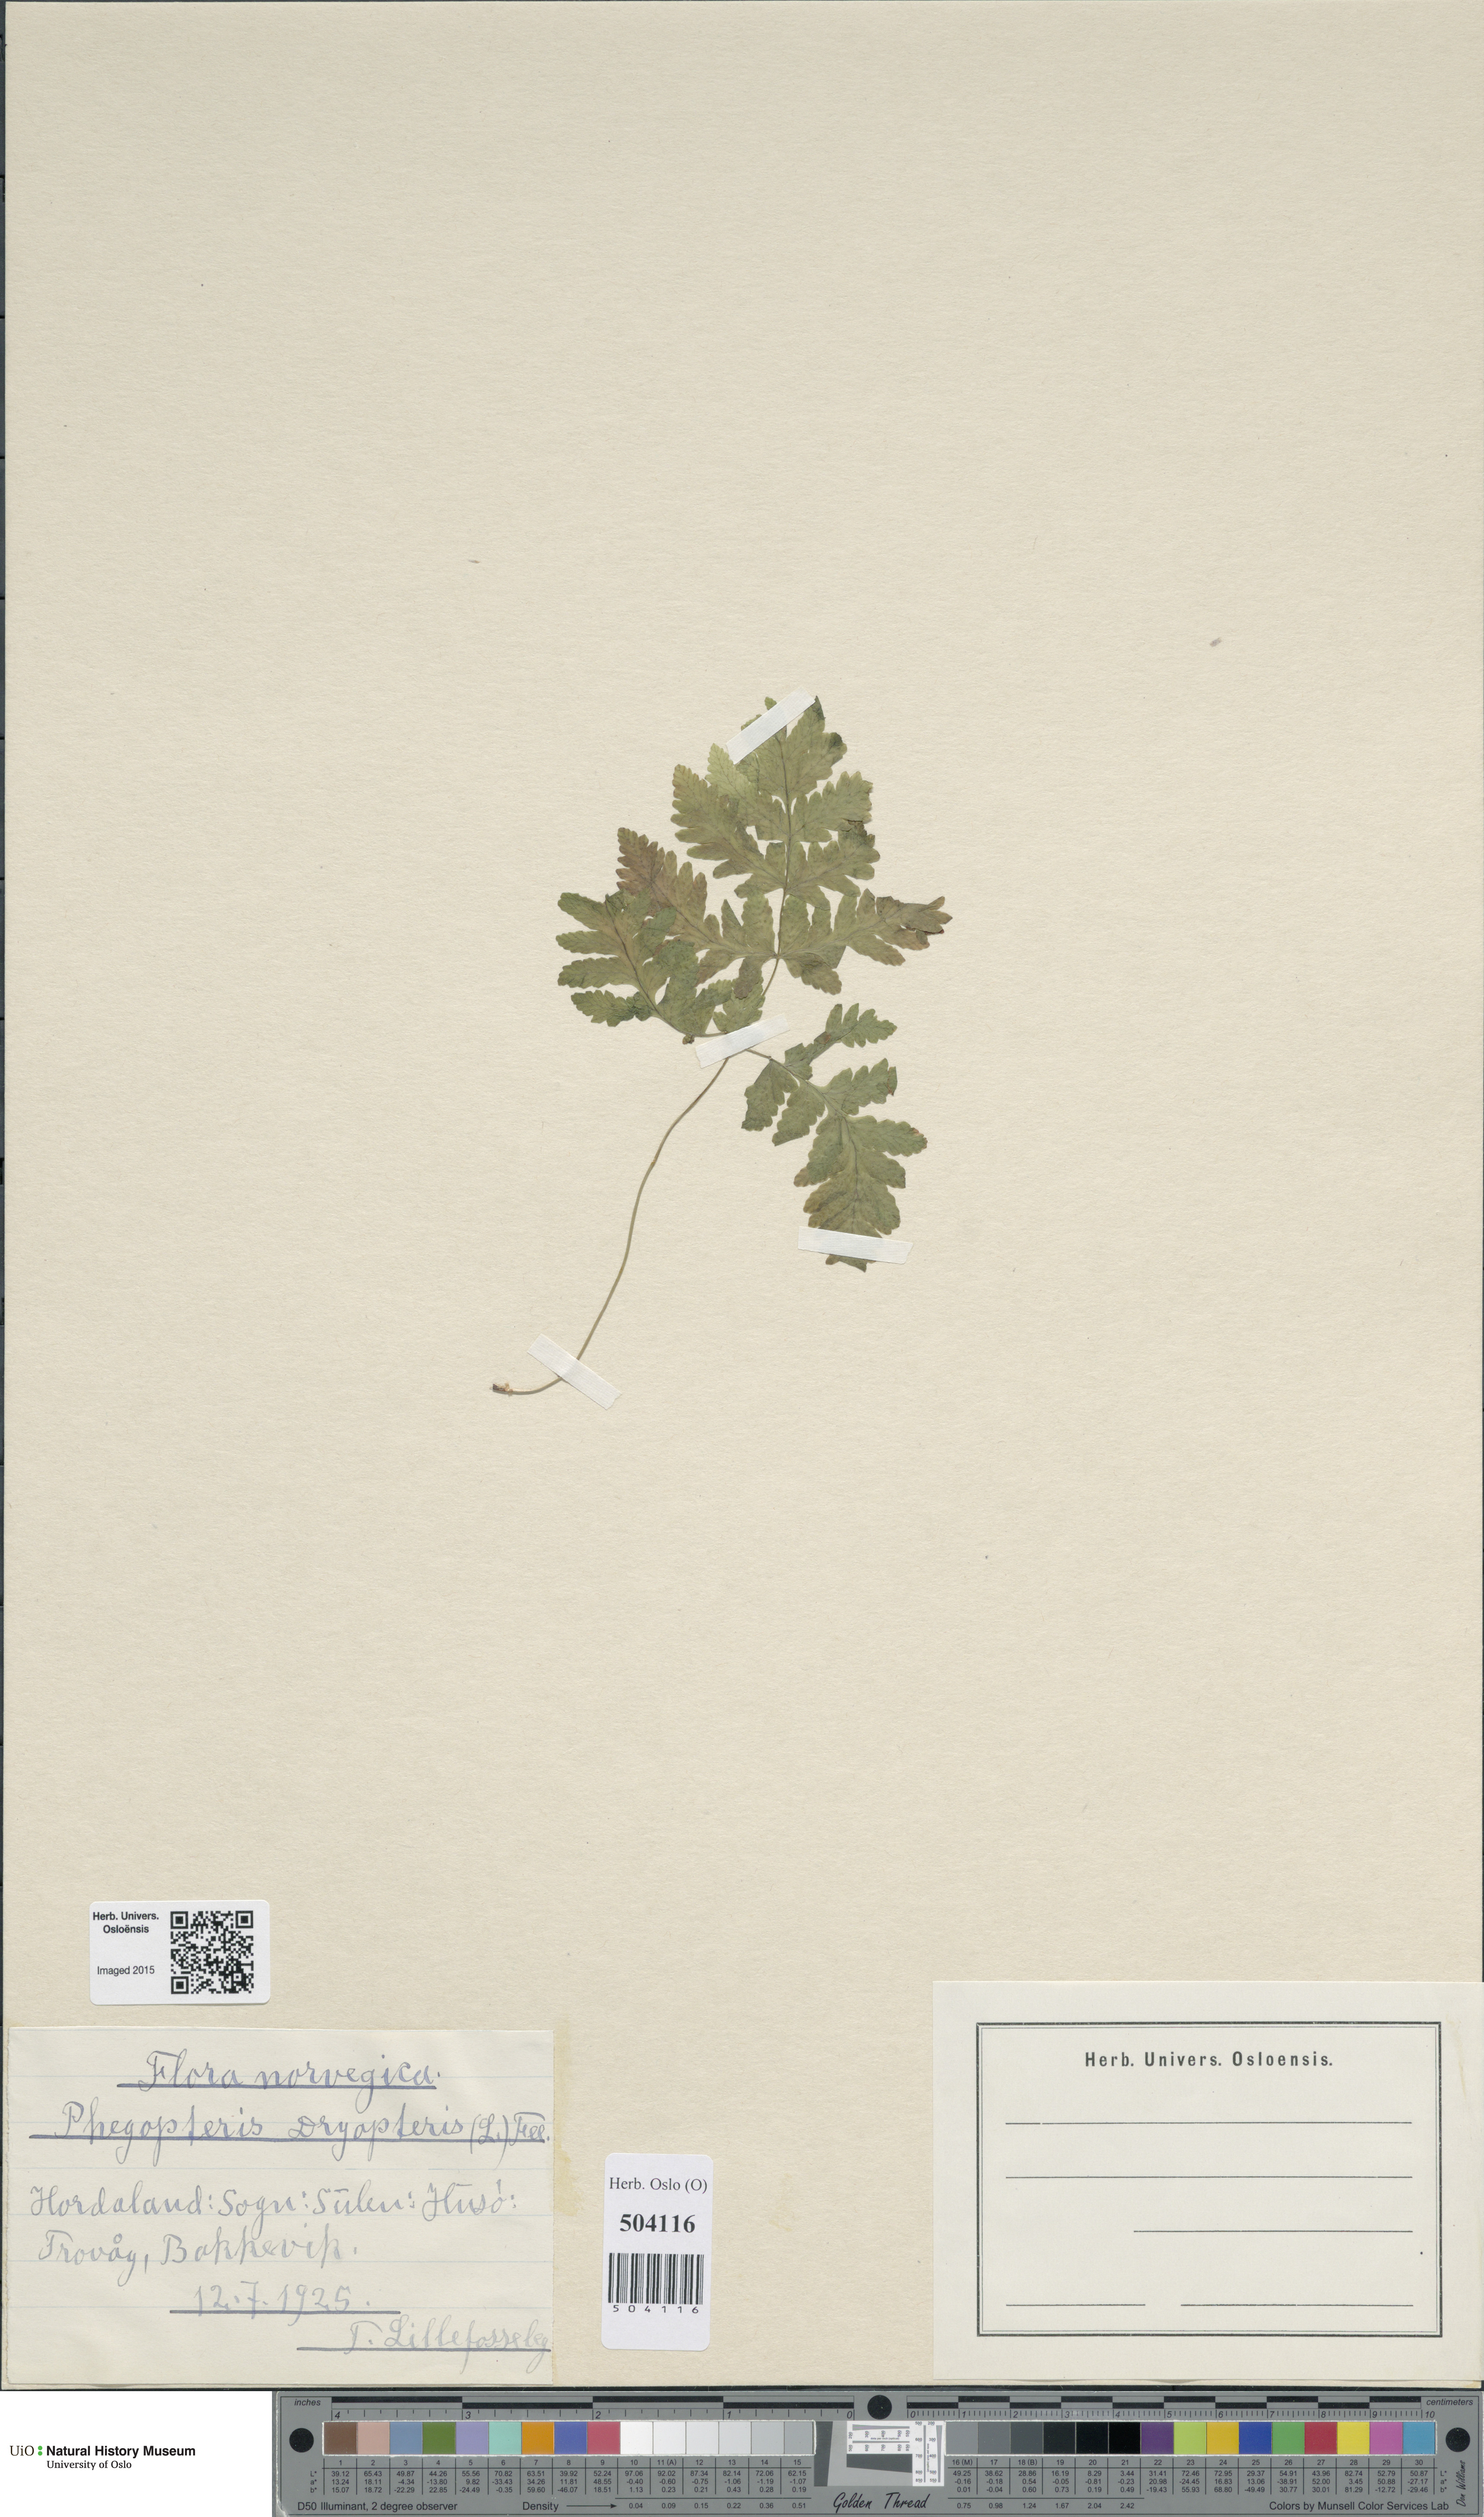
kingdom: Plantae
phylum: Tracheophyta
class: Polypodiopsida
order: Polypodiales
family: Cystopteridaceae
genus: Gymnocarpium
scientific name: Gymnocarpium dryopteris
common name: Oak fern
